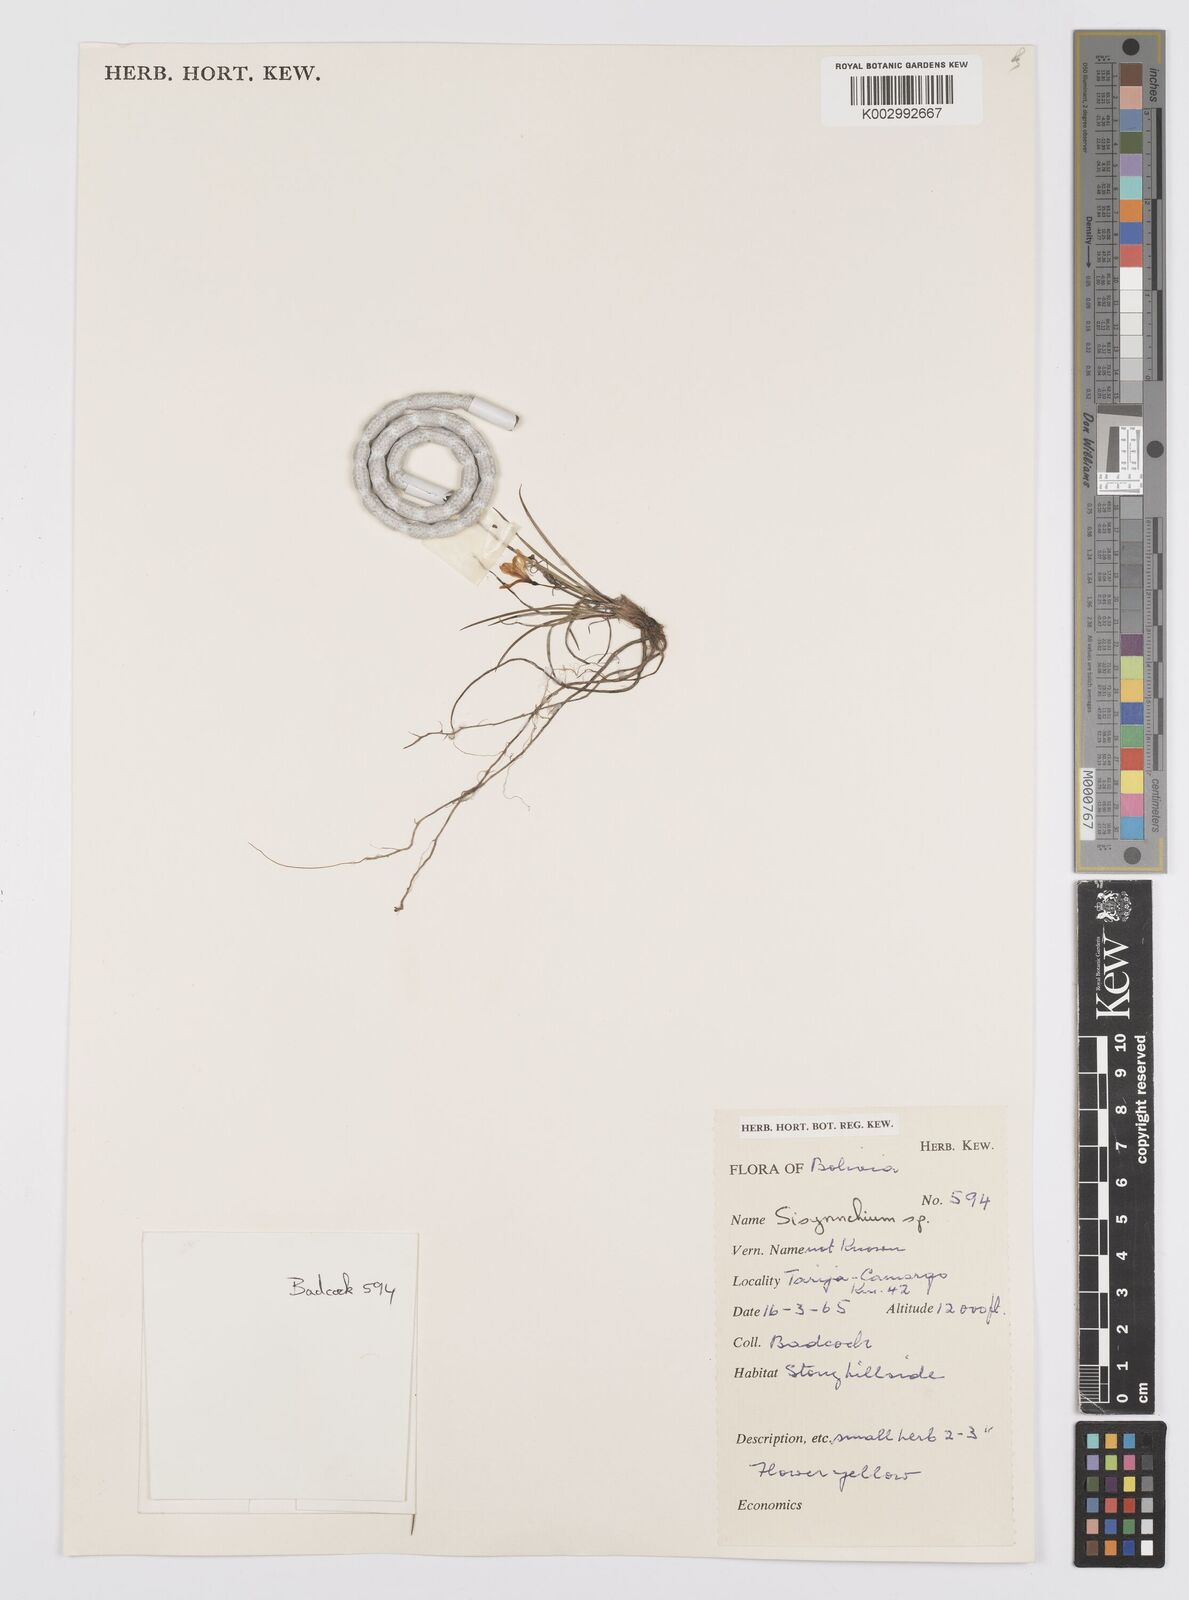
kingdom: Plantae
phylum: Tracheophyta
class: Liliopsida
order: Asparagales
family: Iridaceae
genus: Sisyrinchium
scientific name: Sisyrinchium
